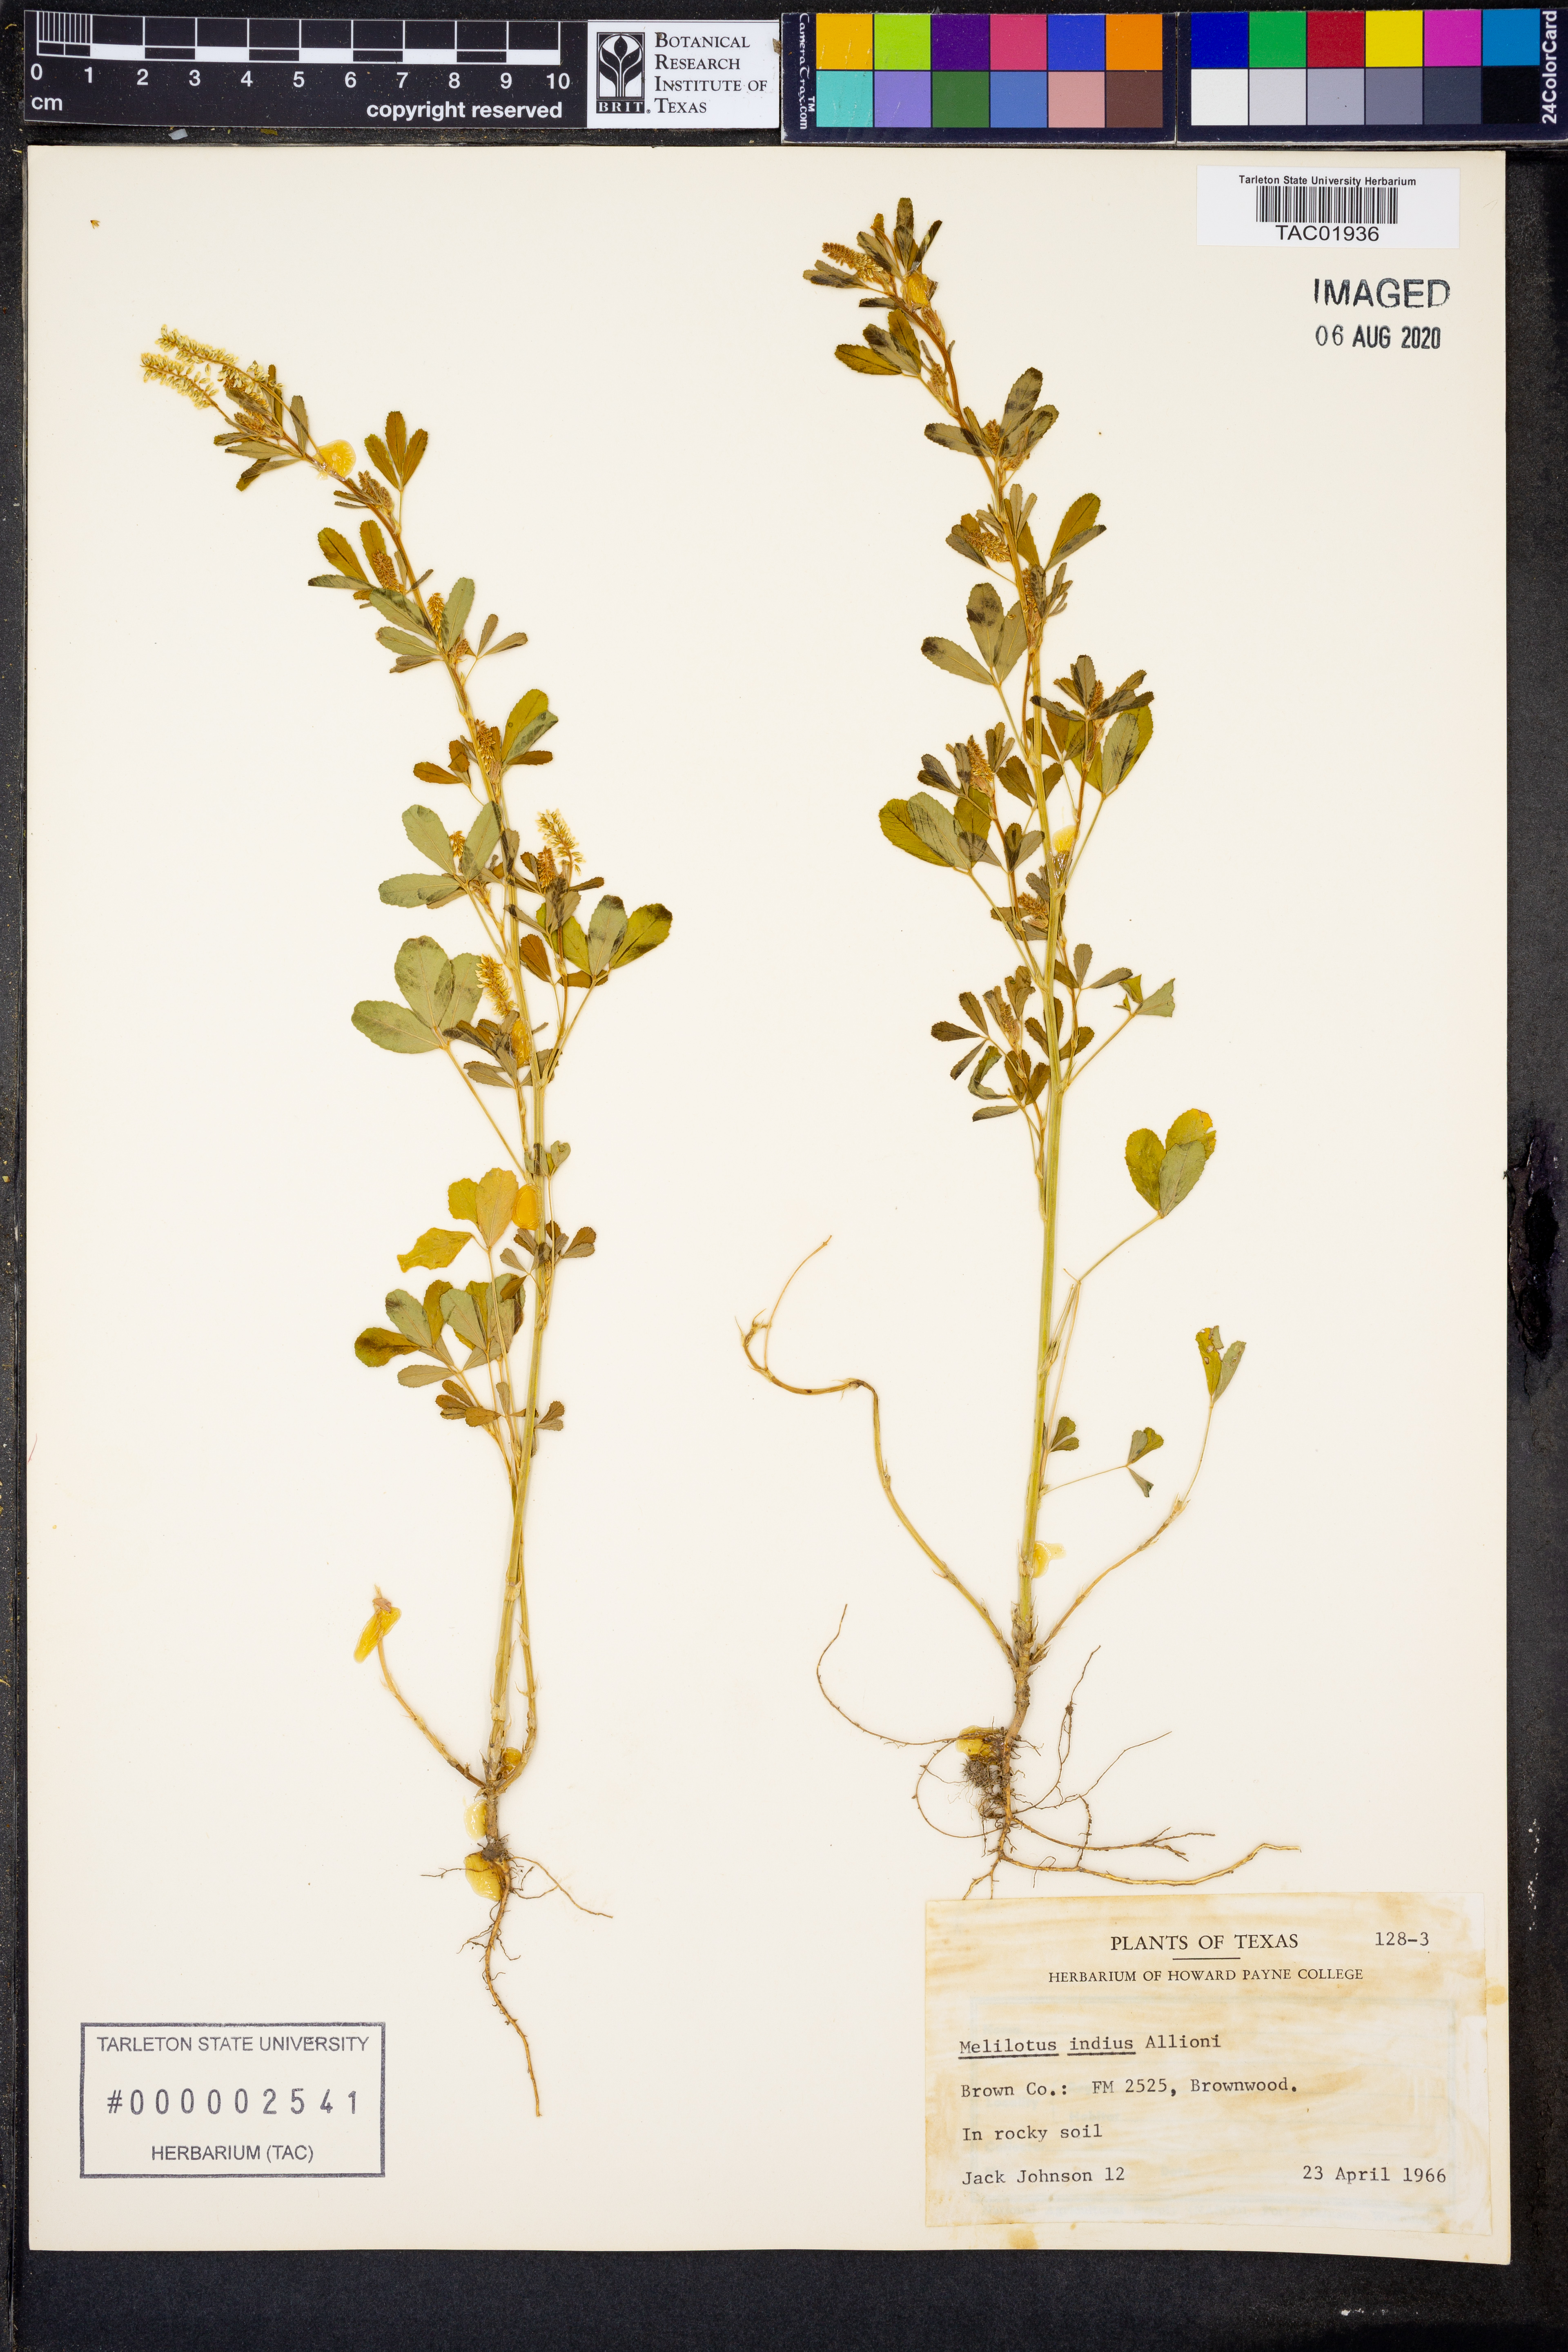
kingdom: Plantae
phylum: Tracheophyta
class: Magnoliopsida
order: Fabales
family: Fabaceae
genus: Melilotus
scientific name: Melilotus indicus
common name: Small melilot
